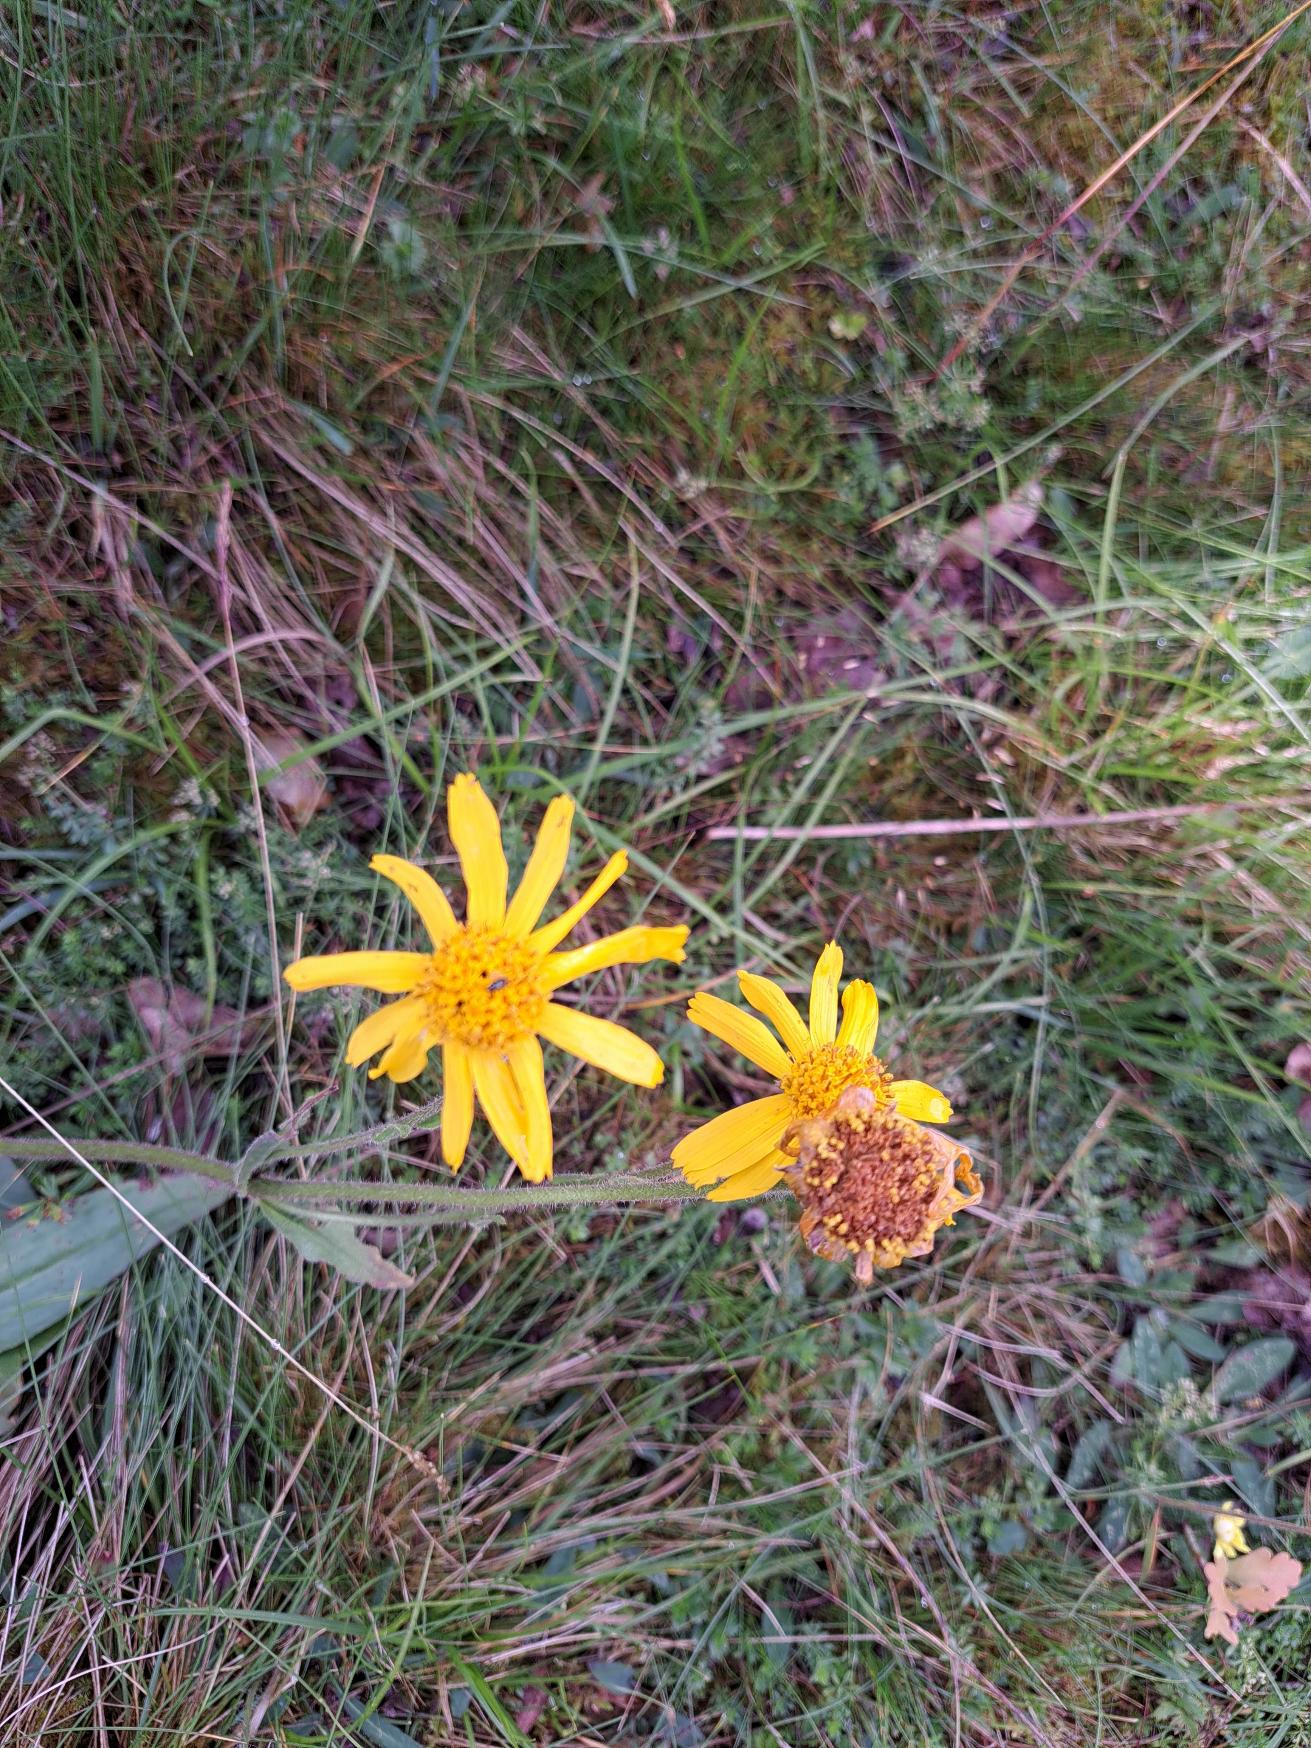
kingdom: Plantae
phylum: Tracheophyta
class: Magnoliopsida
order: Asterales
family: Asteraceae
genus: Arnica
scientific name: Arnica montana
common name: Guldblomme
